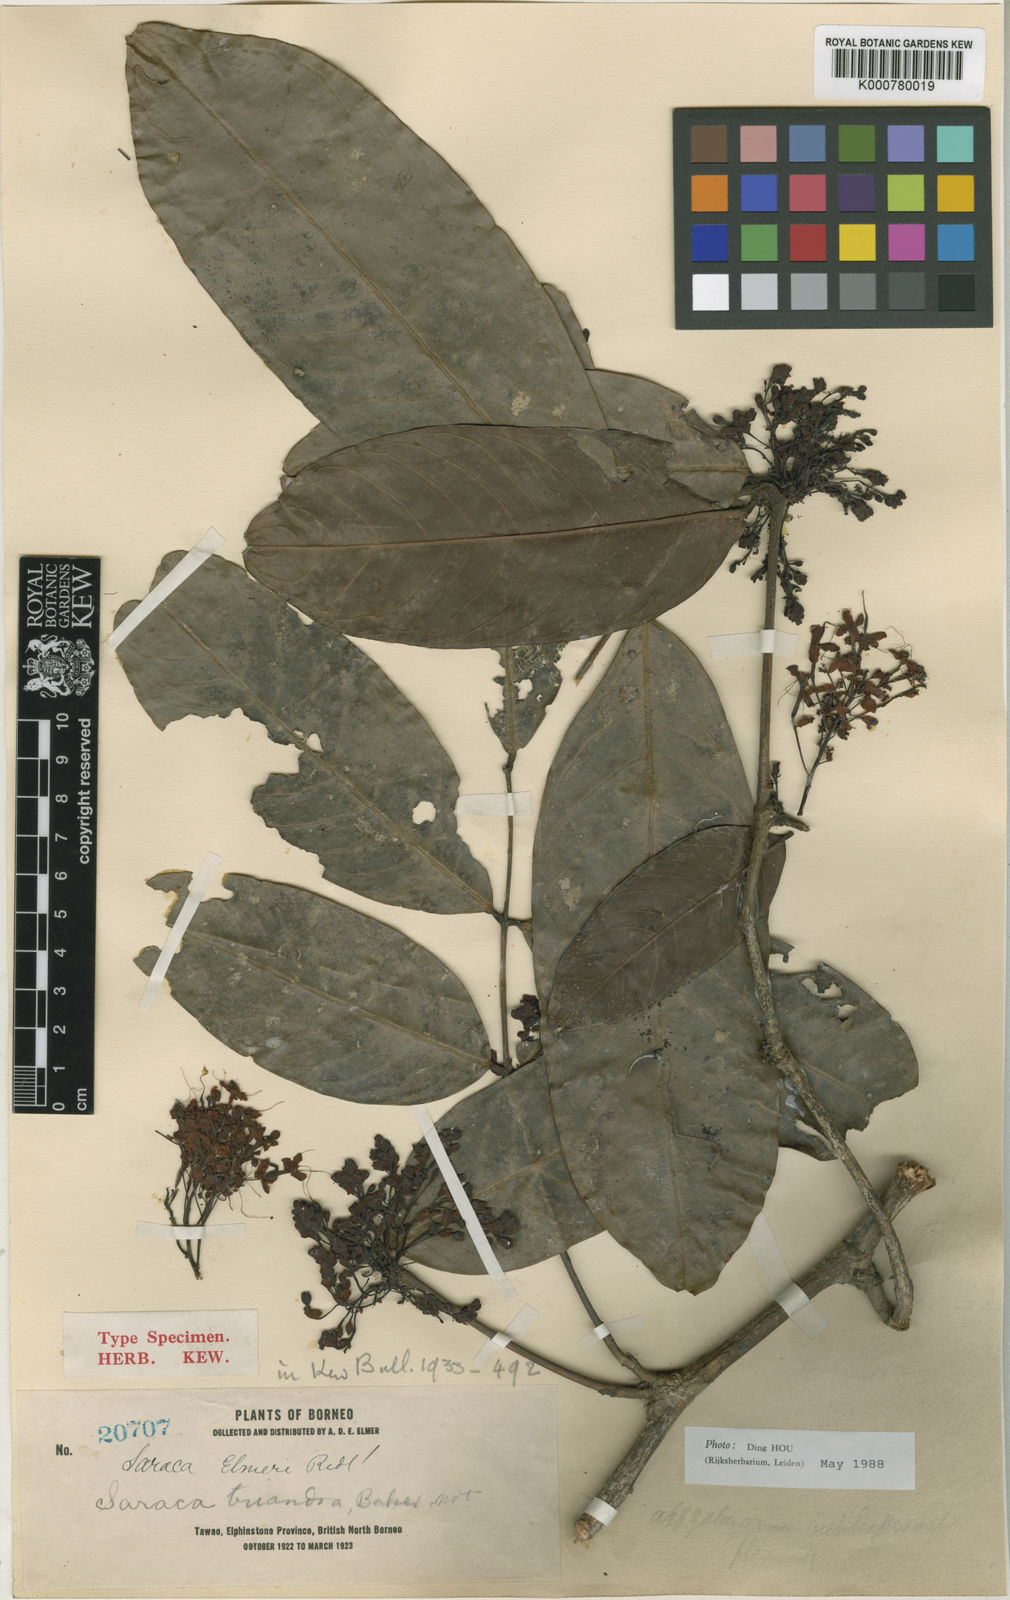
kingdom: Plantae
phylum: Tracheophyta
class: Magnoliopsida
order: Fabales
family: Fabaceae
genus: Saraca
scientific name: Saraca declinata
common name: Red saraca
